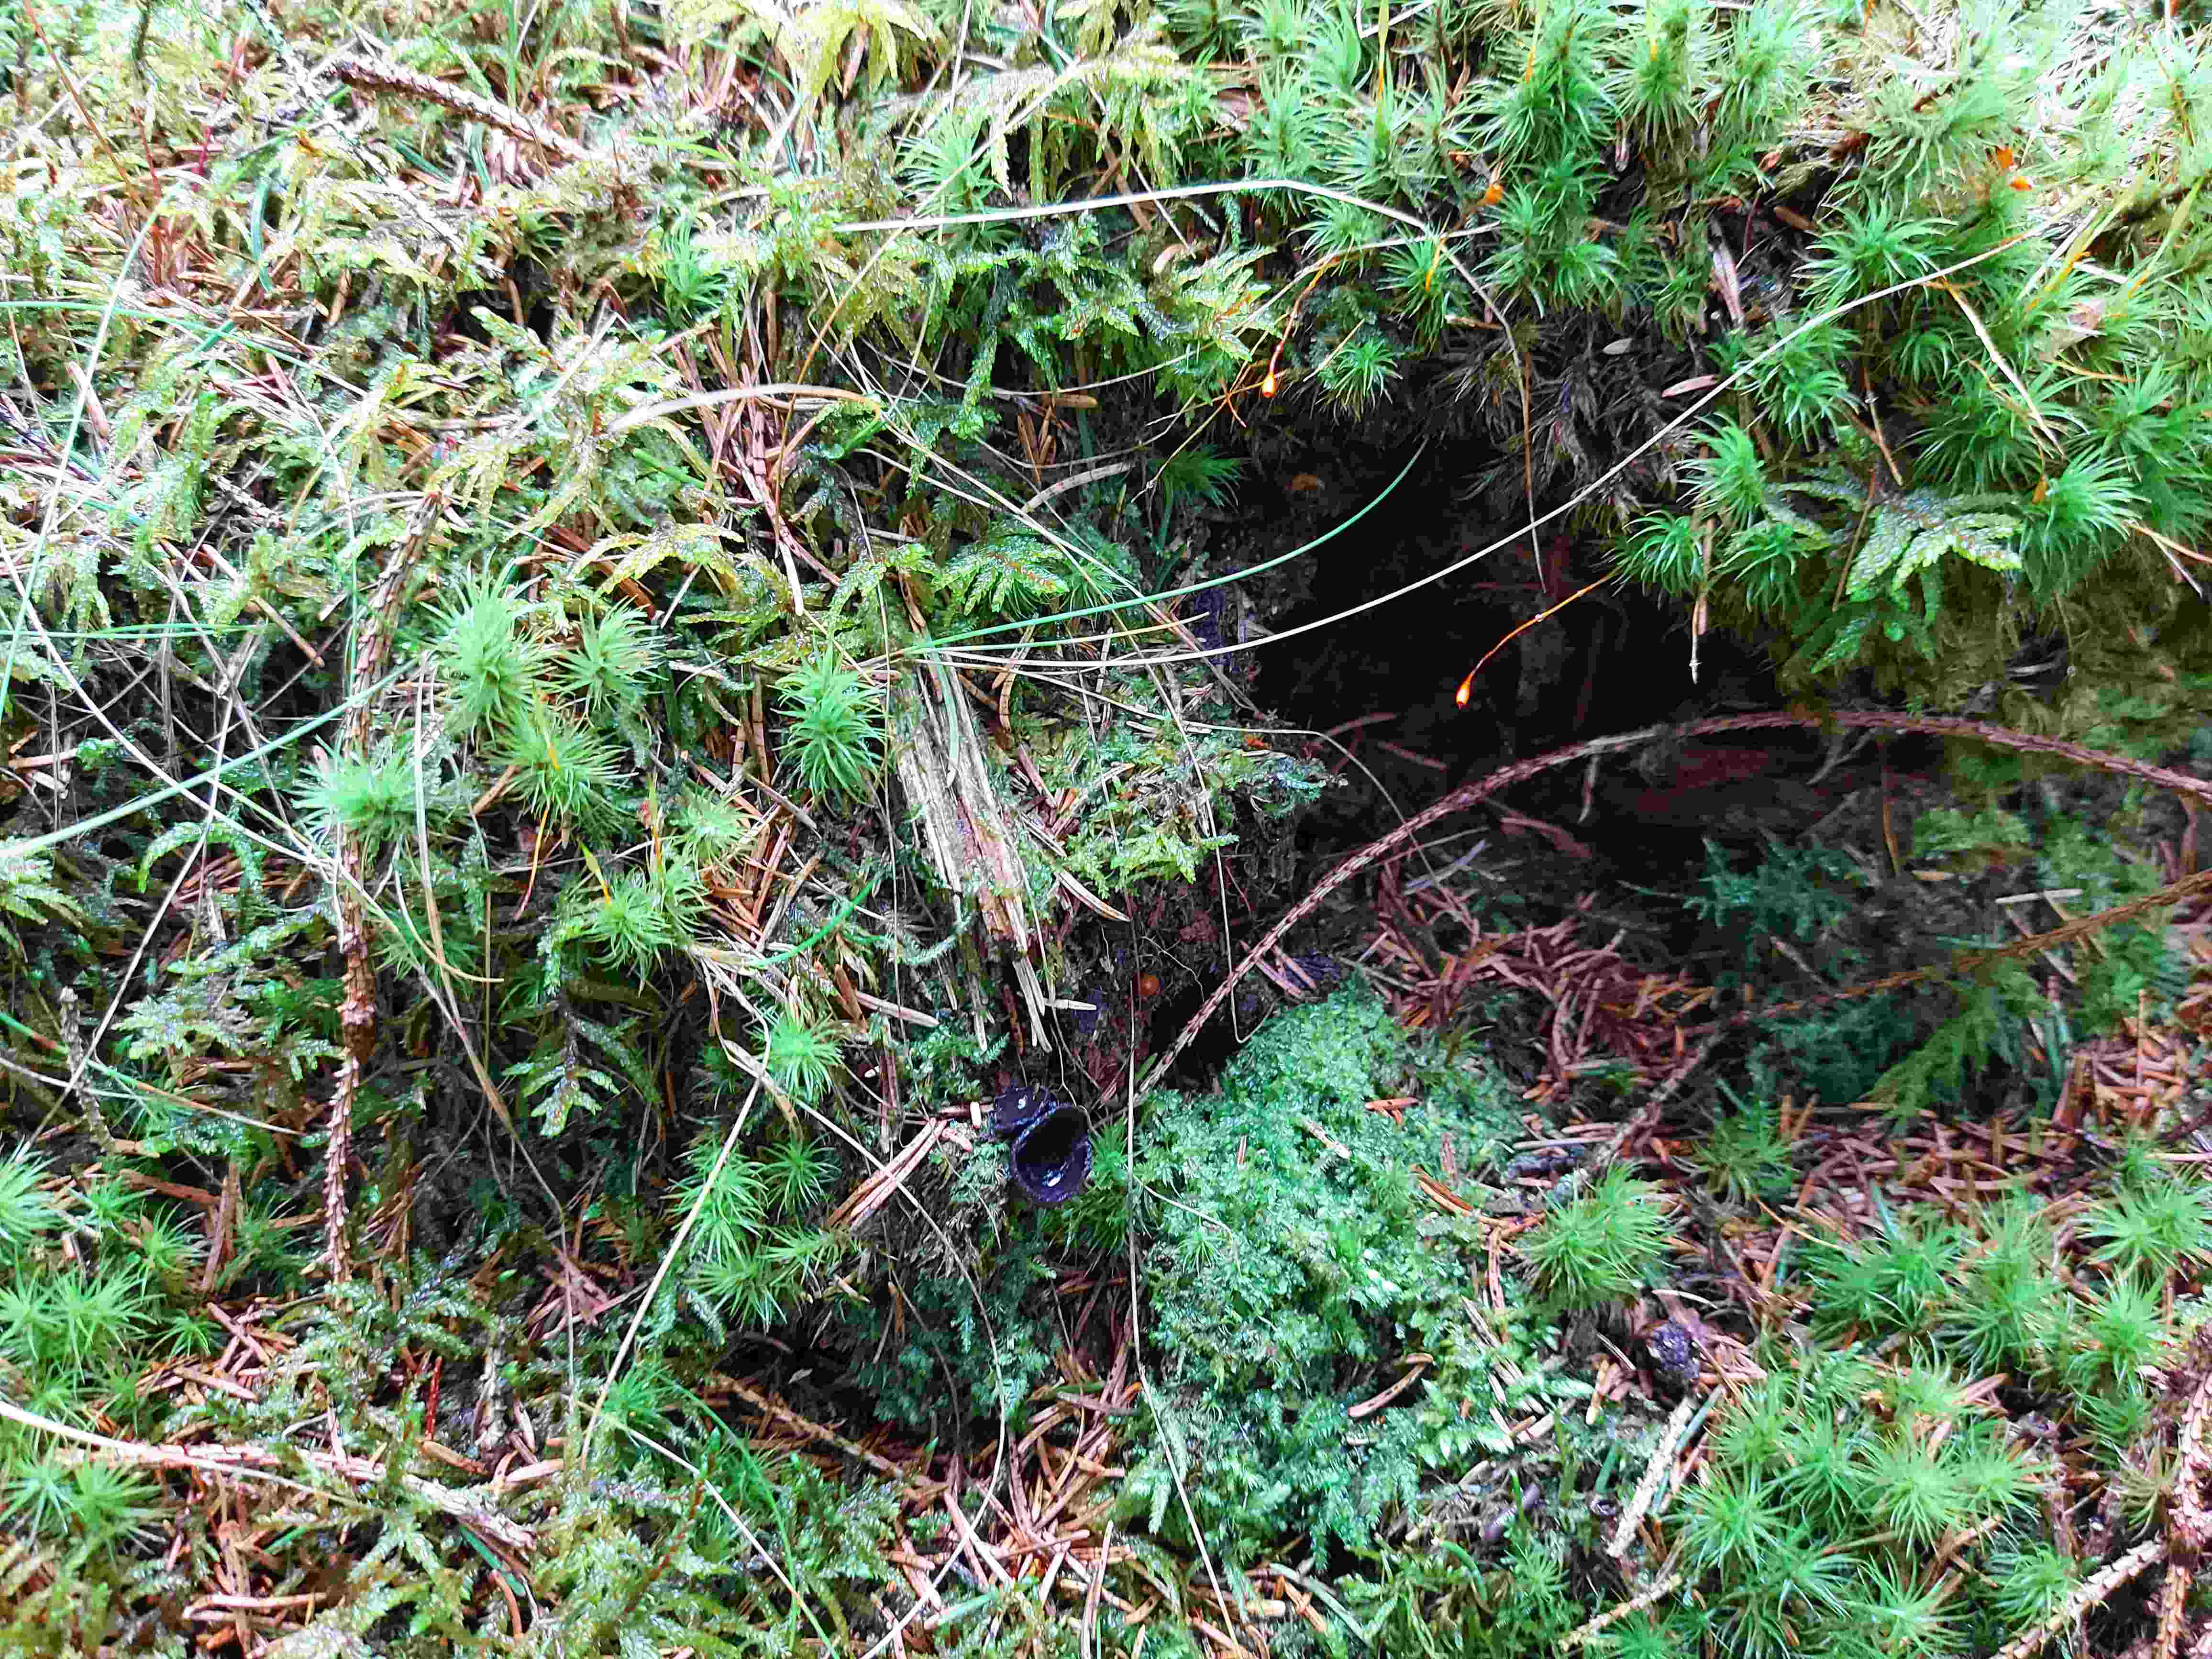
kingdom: Fungi
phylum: Ascomycota
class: Pezizomycetes
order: Pezizales
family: Sarcosomataceae
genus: Pseudoplectania
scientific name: Pseudoplectania nigrella
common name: almindelig sortbæger
